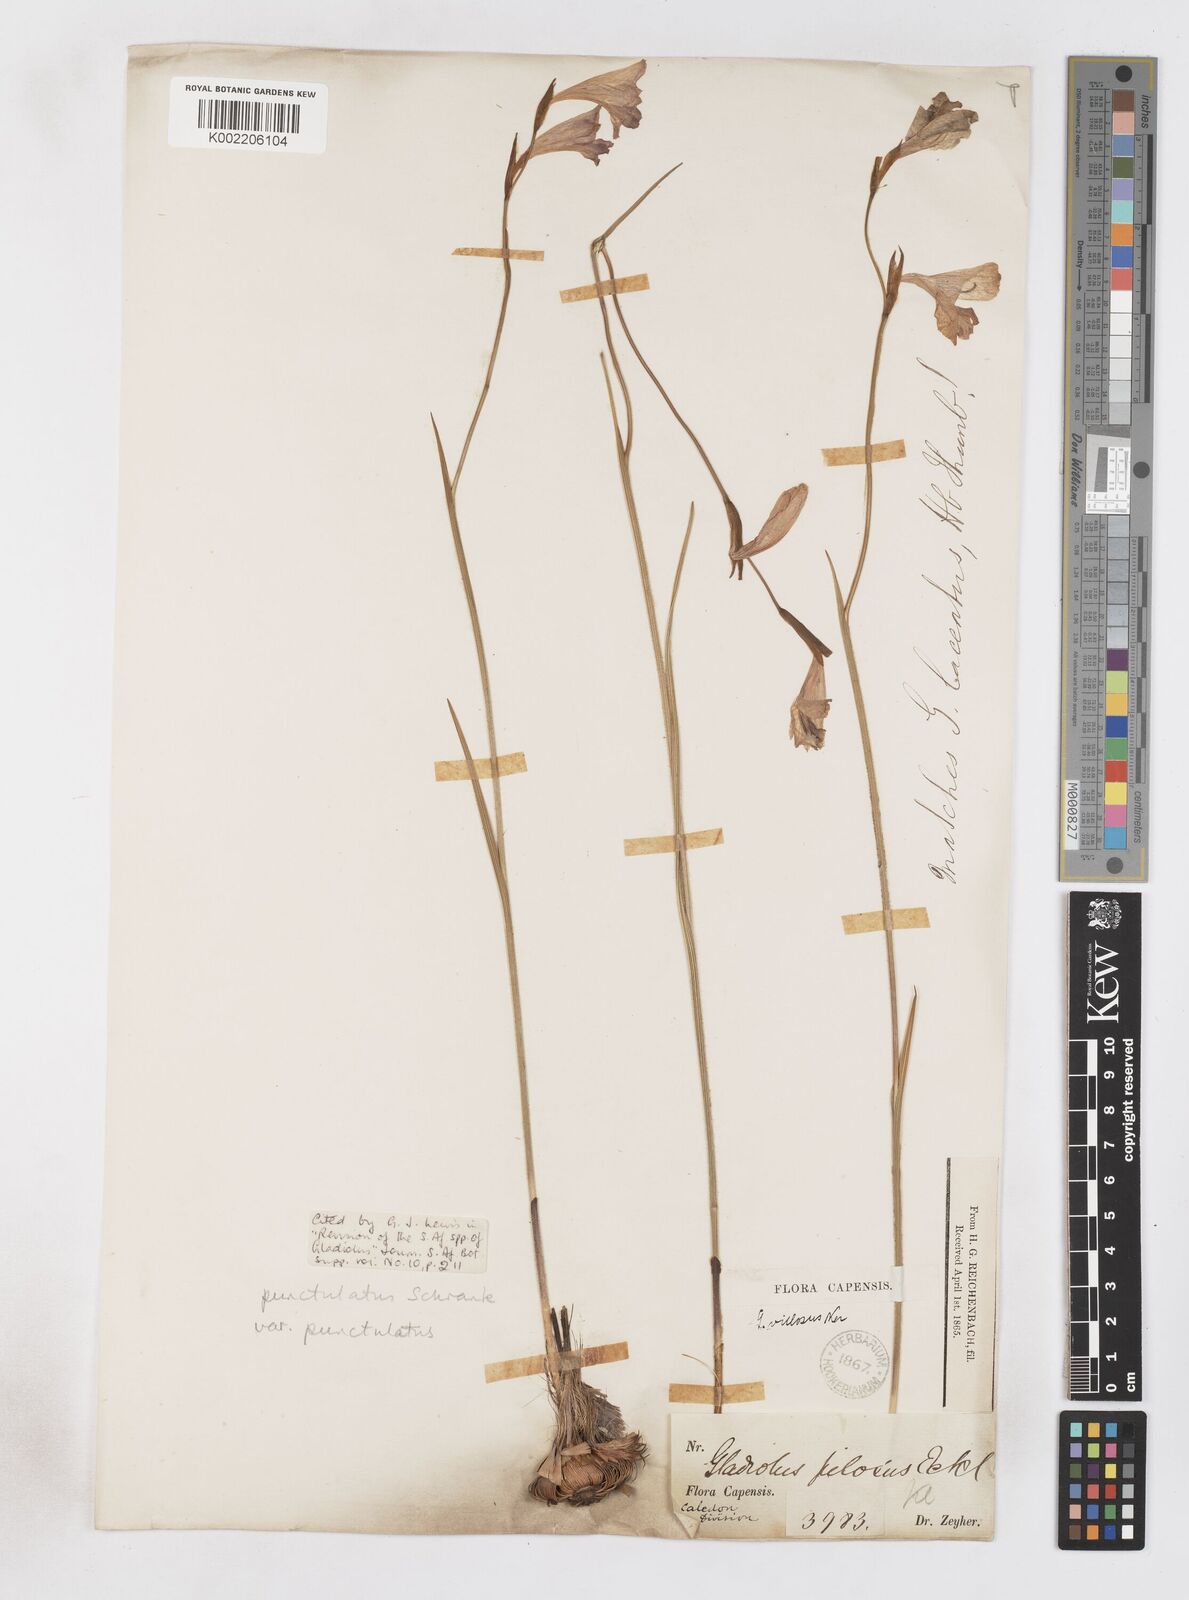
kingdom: Plantae
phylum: Tracheophyta
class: Liliopsida
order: Asparagales
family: Iridaceae
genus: Gladiolus
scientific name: Gladiolus hirsutus
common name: Small pink afrikaner
